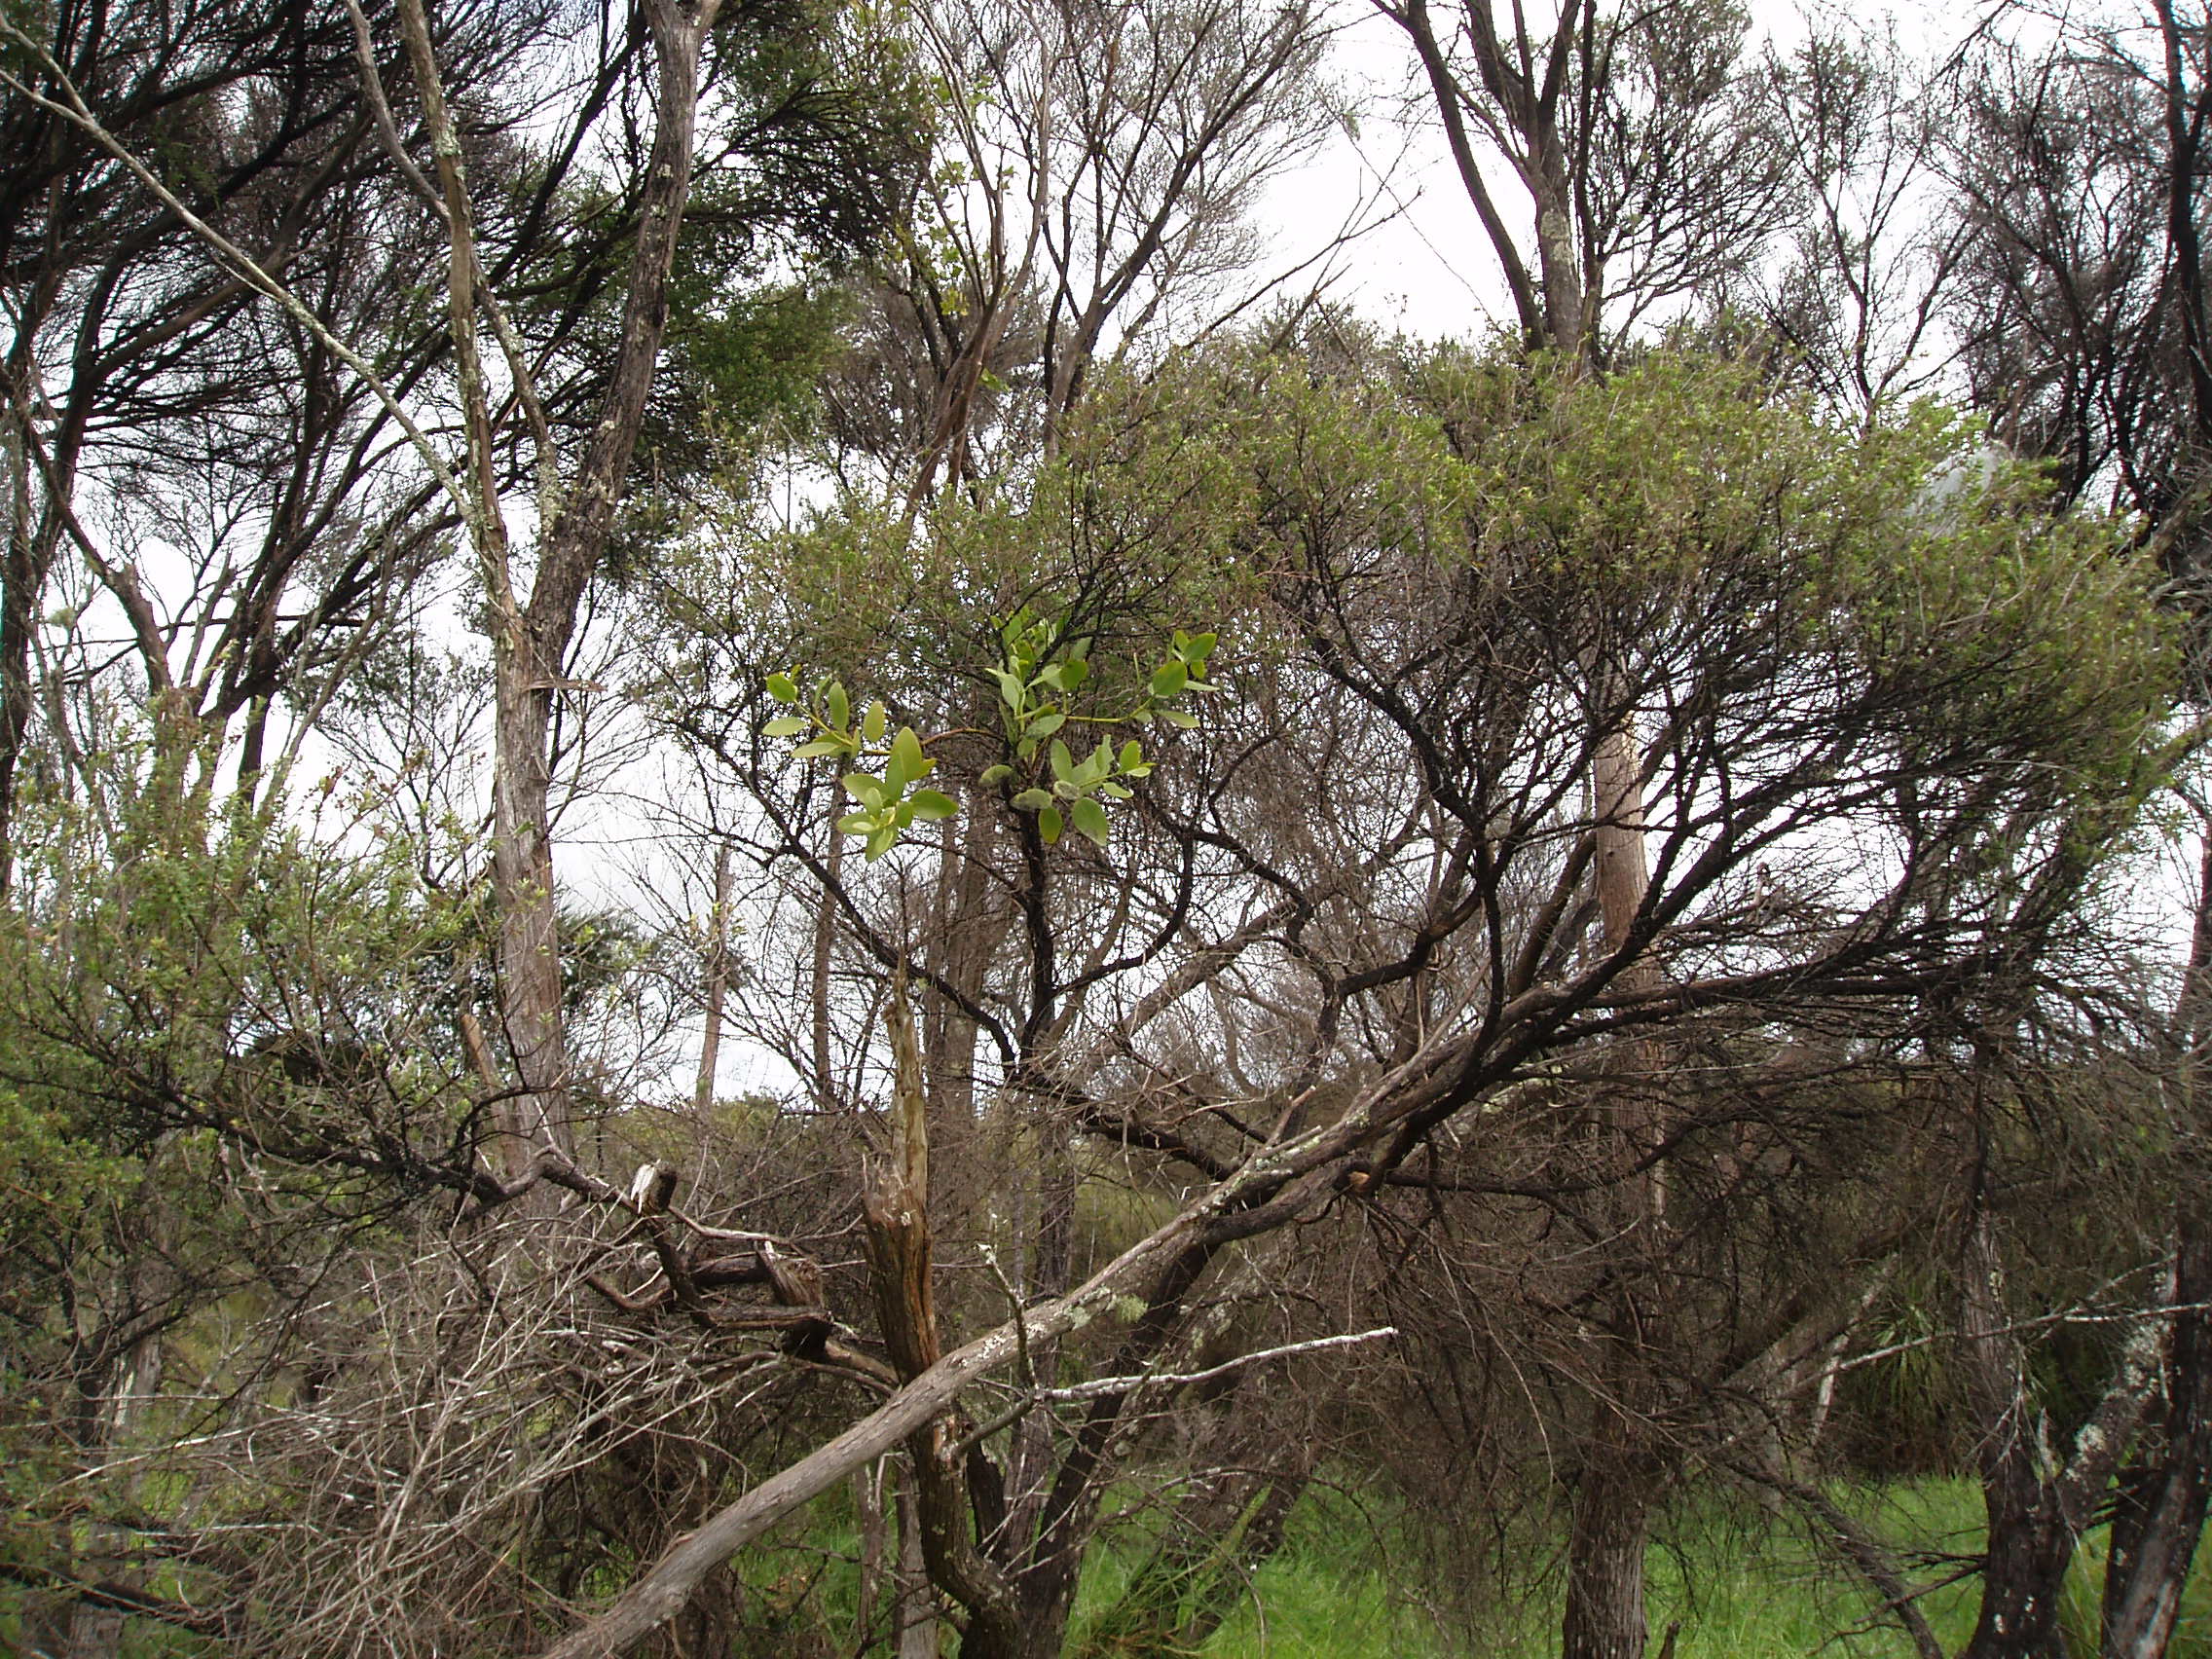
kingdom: Plantae
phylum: Tracheophyta
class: Magnoliopsida
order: Santalales
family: Loranthaceae
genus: Ileostylus
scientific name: Ileostylus micranthus
